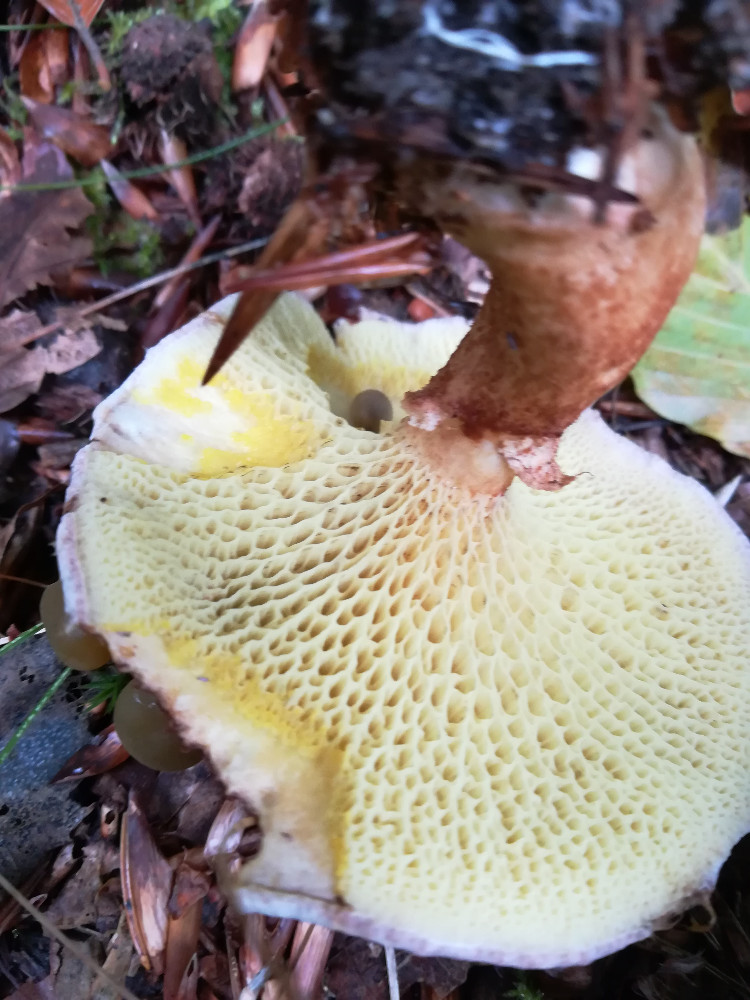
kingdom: Fungi
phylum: Basidiomycota
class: Agaricomycetes
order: Boletales
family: Suillaceae
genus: Suillus
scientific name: Suillus cavipes
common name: hulstokket slimrørhat
